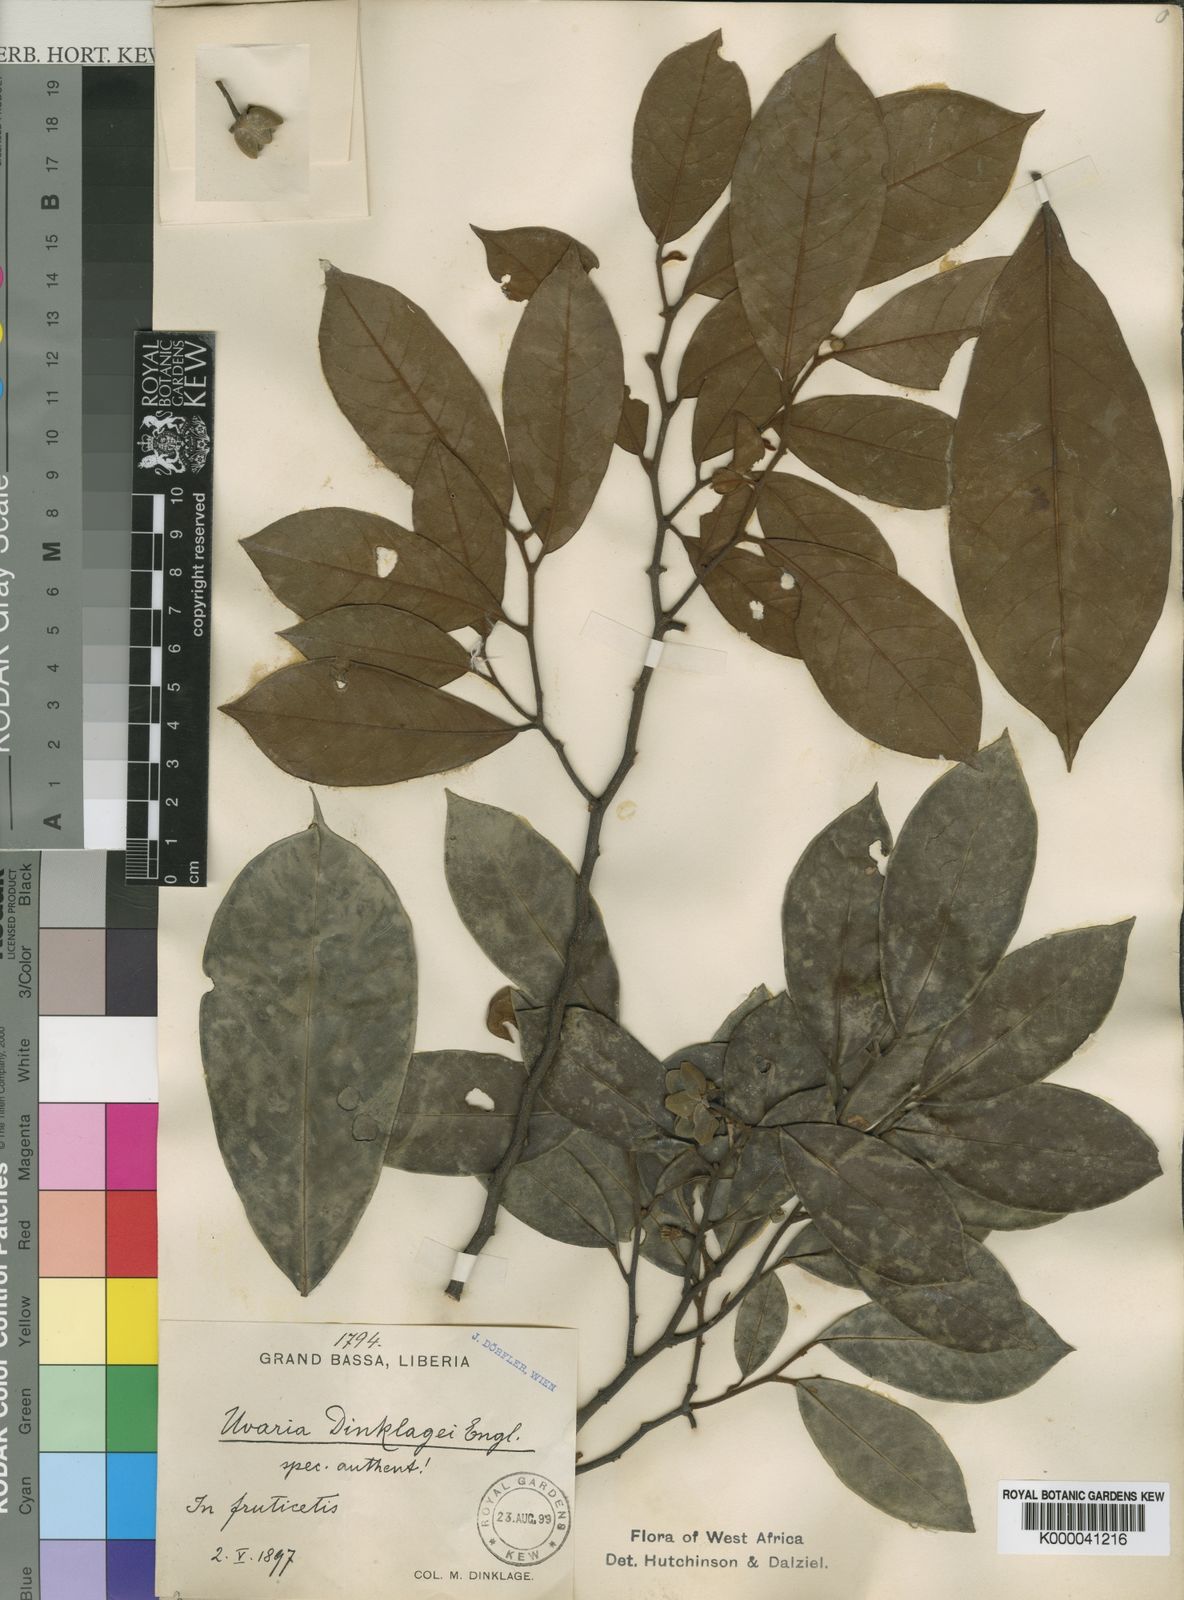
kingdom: Plantae
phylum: Tracheophyta
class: Magnoliopsida
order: Magnoliales
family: Annonaceae
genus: Uvaria
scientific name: Uvaria dinklagei
